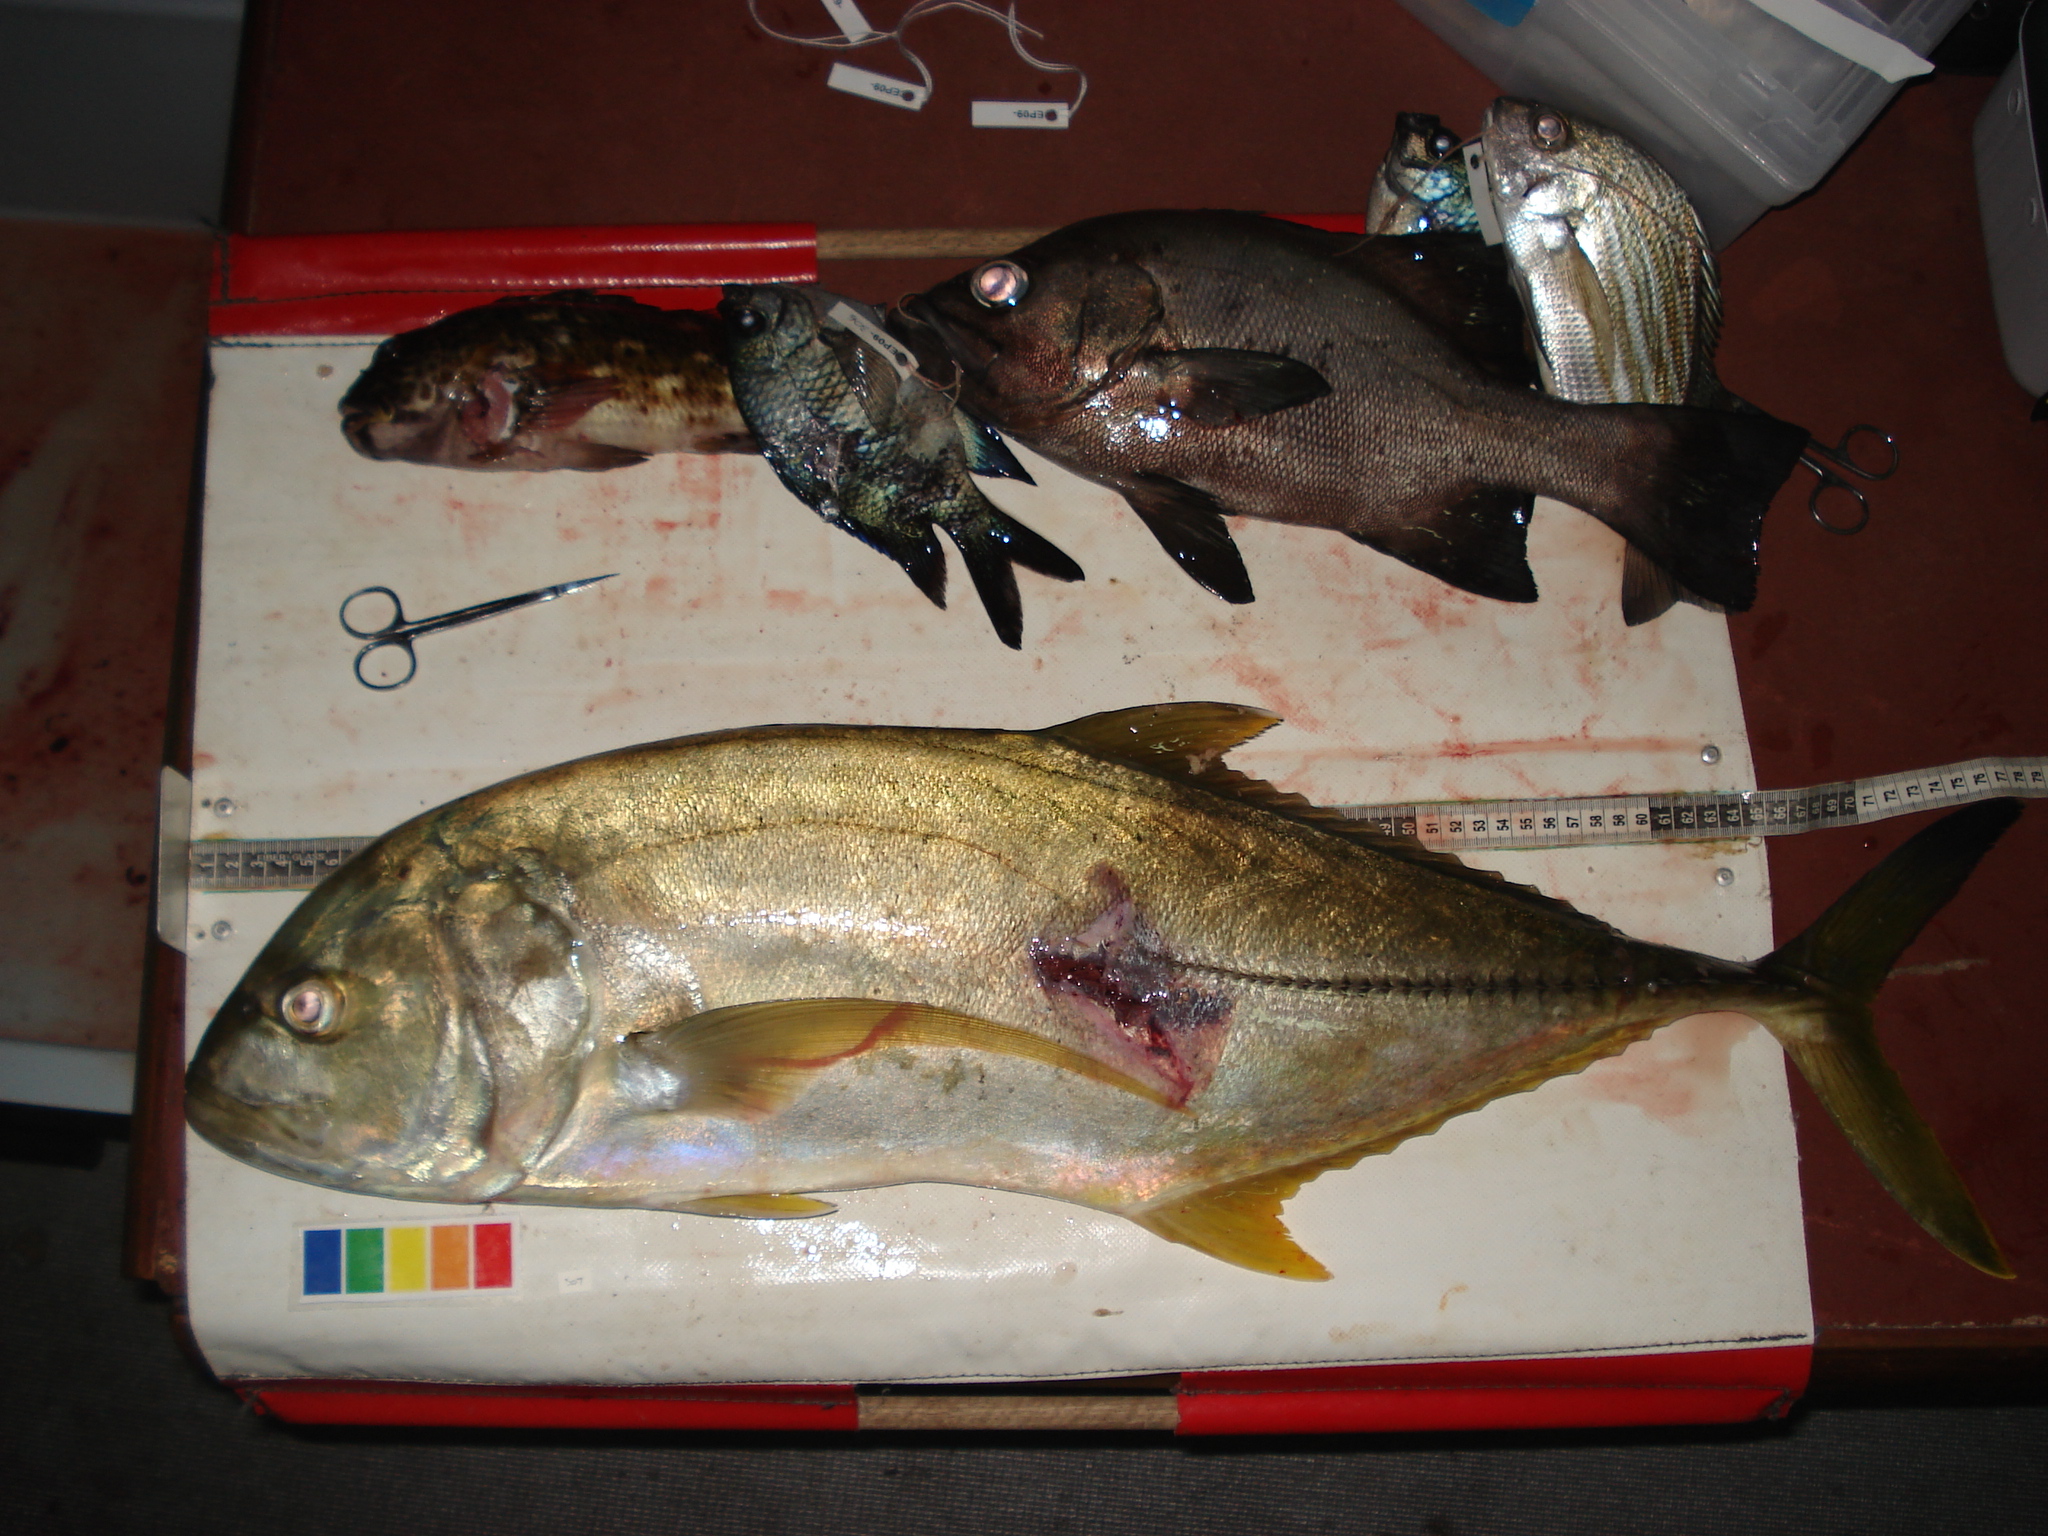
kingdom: Animalia
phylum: Chordata
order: Perciformes
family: Carangidae
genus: Caranx
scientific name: Caranx heberi
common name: Blacktip trevally
